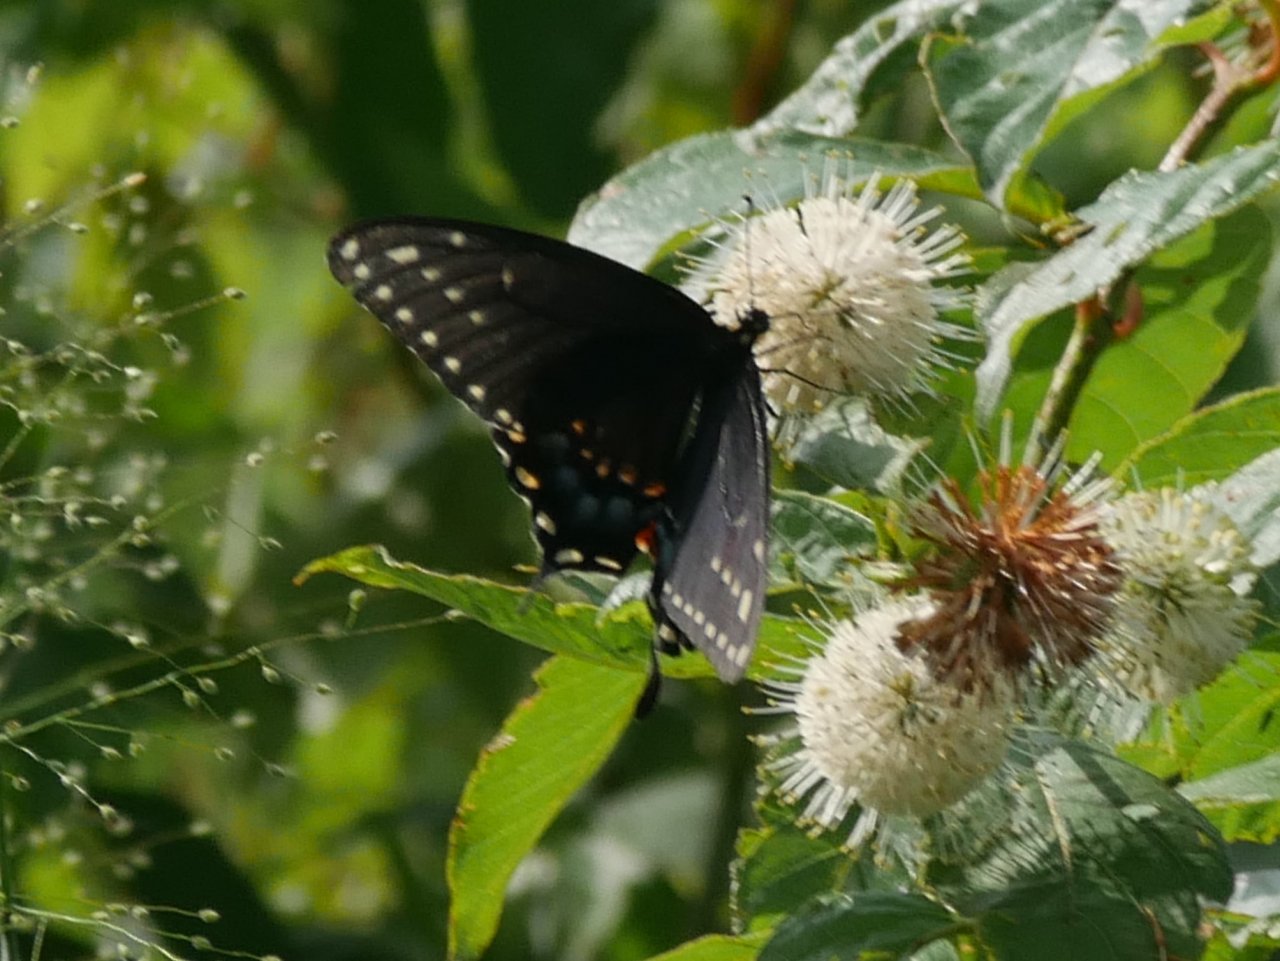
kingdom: Animalia
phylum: Arthropoda
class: Insecta
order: Lepidoptera
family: Papilionidae
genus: Papilio
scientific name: Papilio polyxenes
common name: Black Swallowtail
